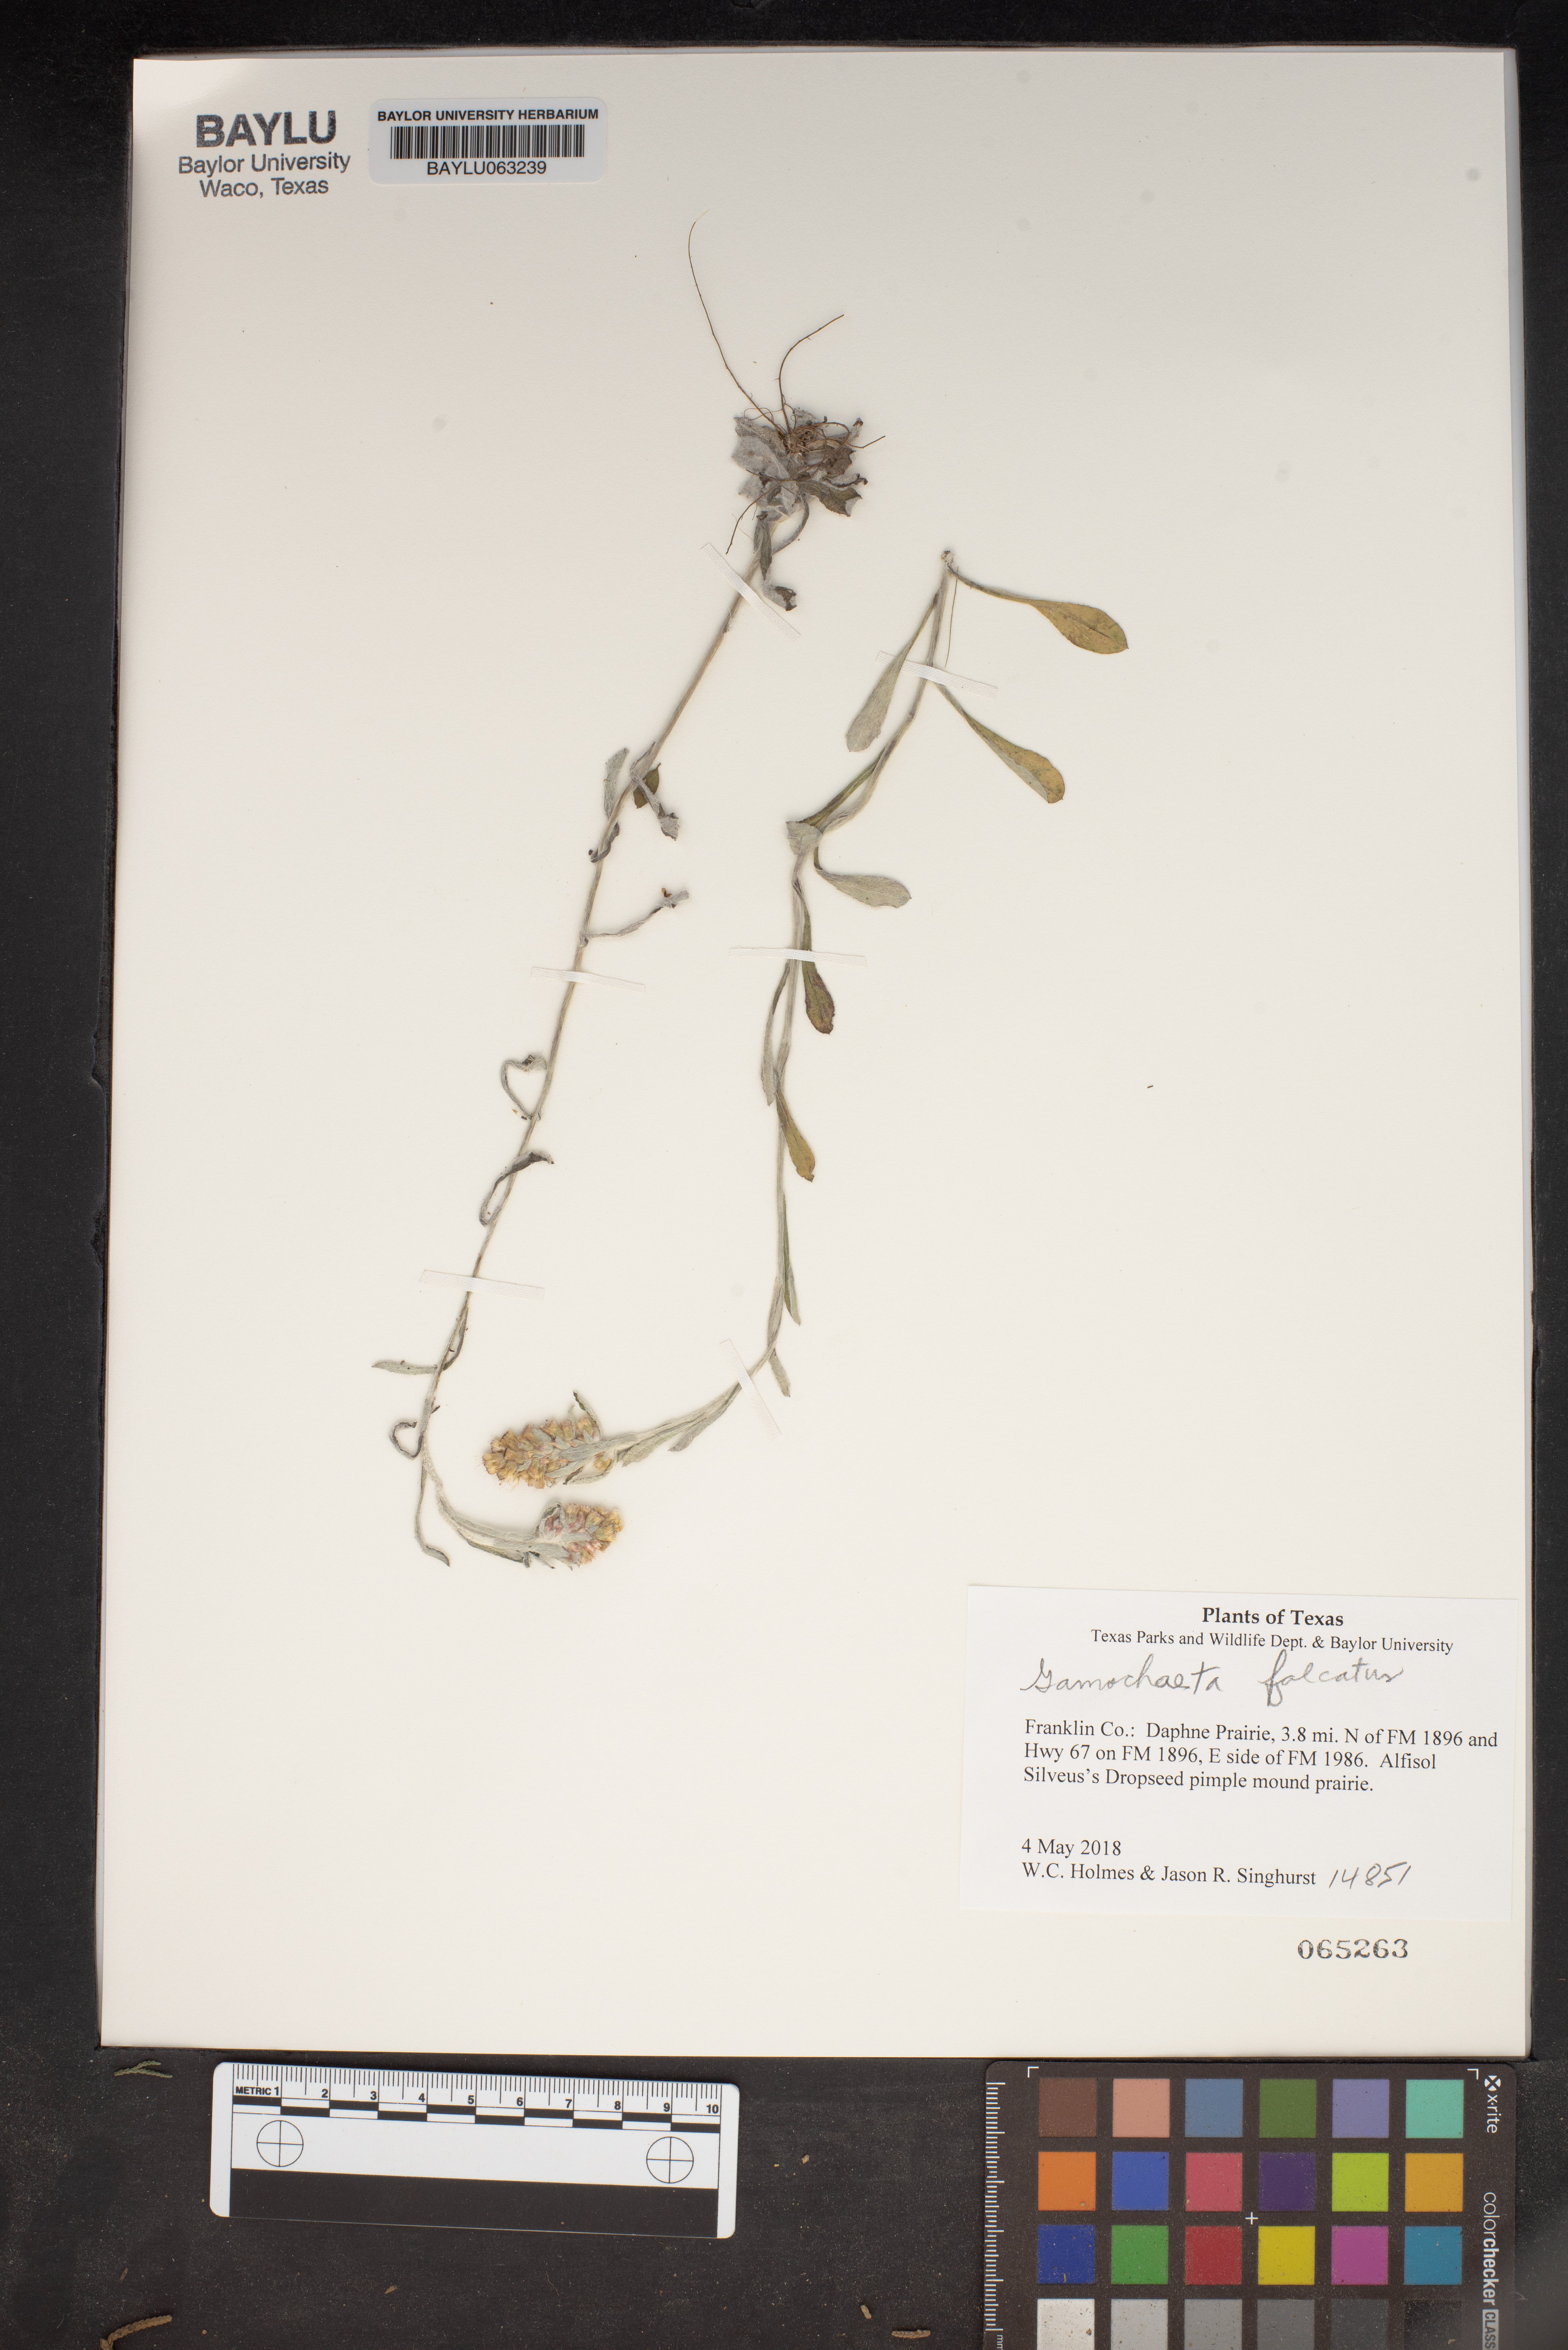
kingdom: Plantae
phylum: Tracheophyta
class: Magnoliopsida
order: Asterales
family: Asteraceae
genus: Gamochaeta
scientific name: Gamochaeta falcata
